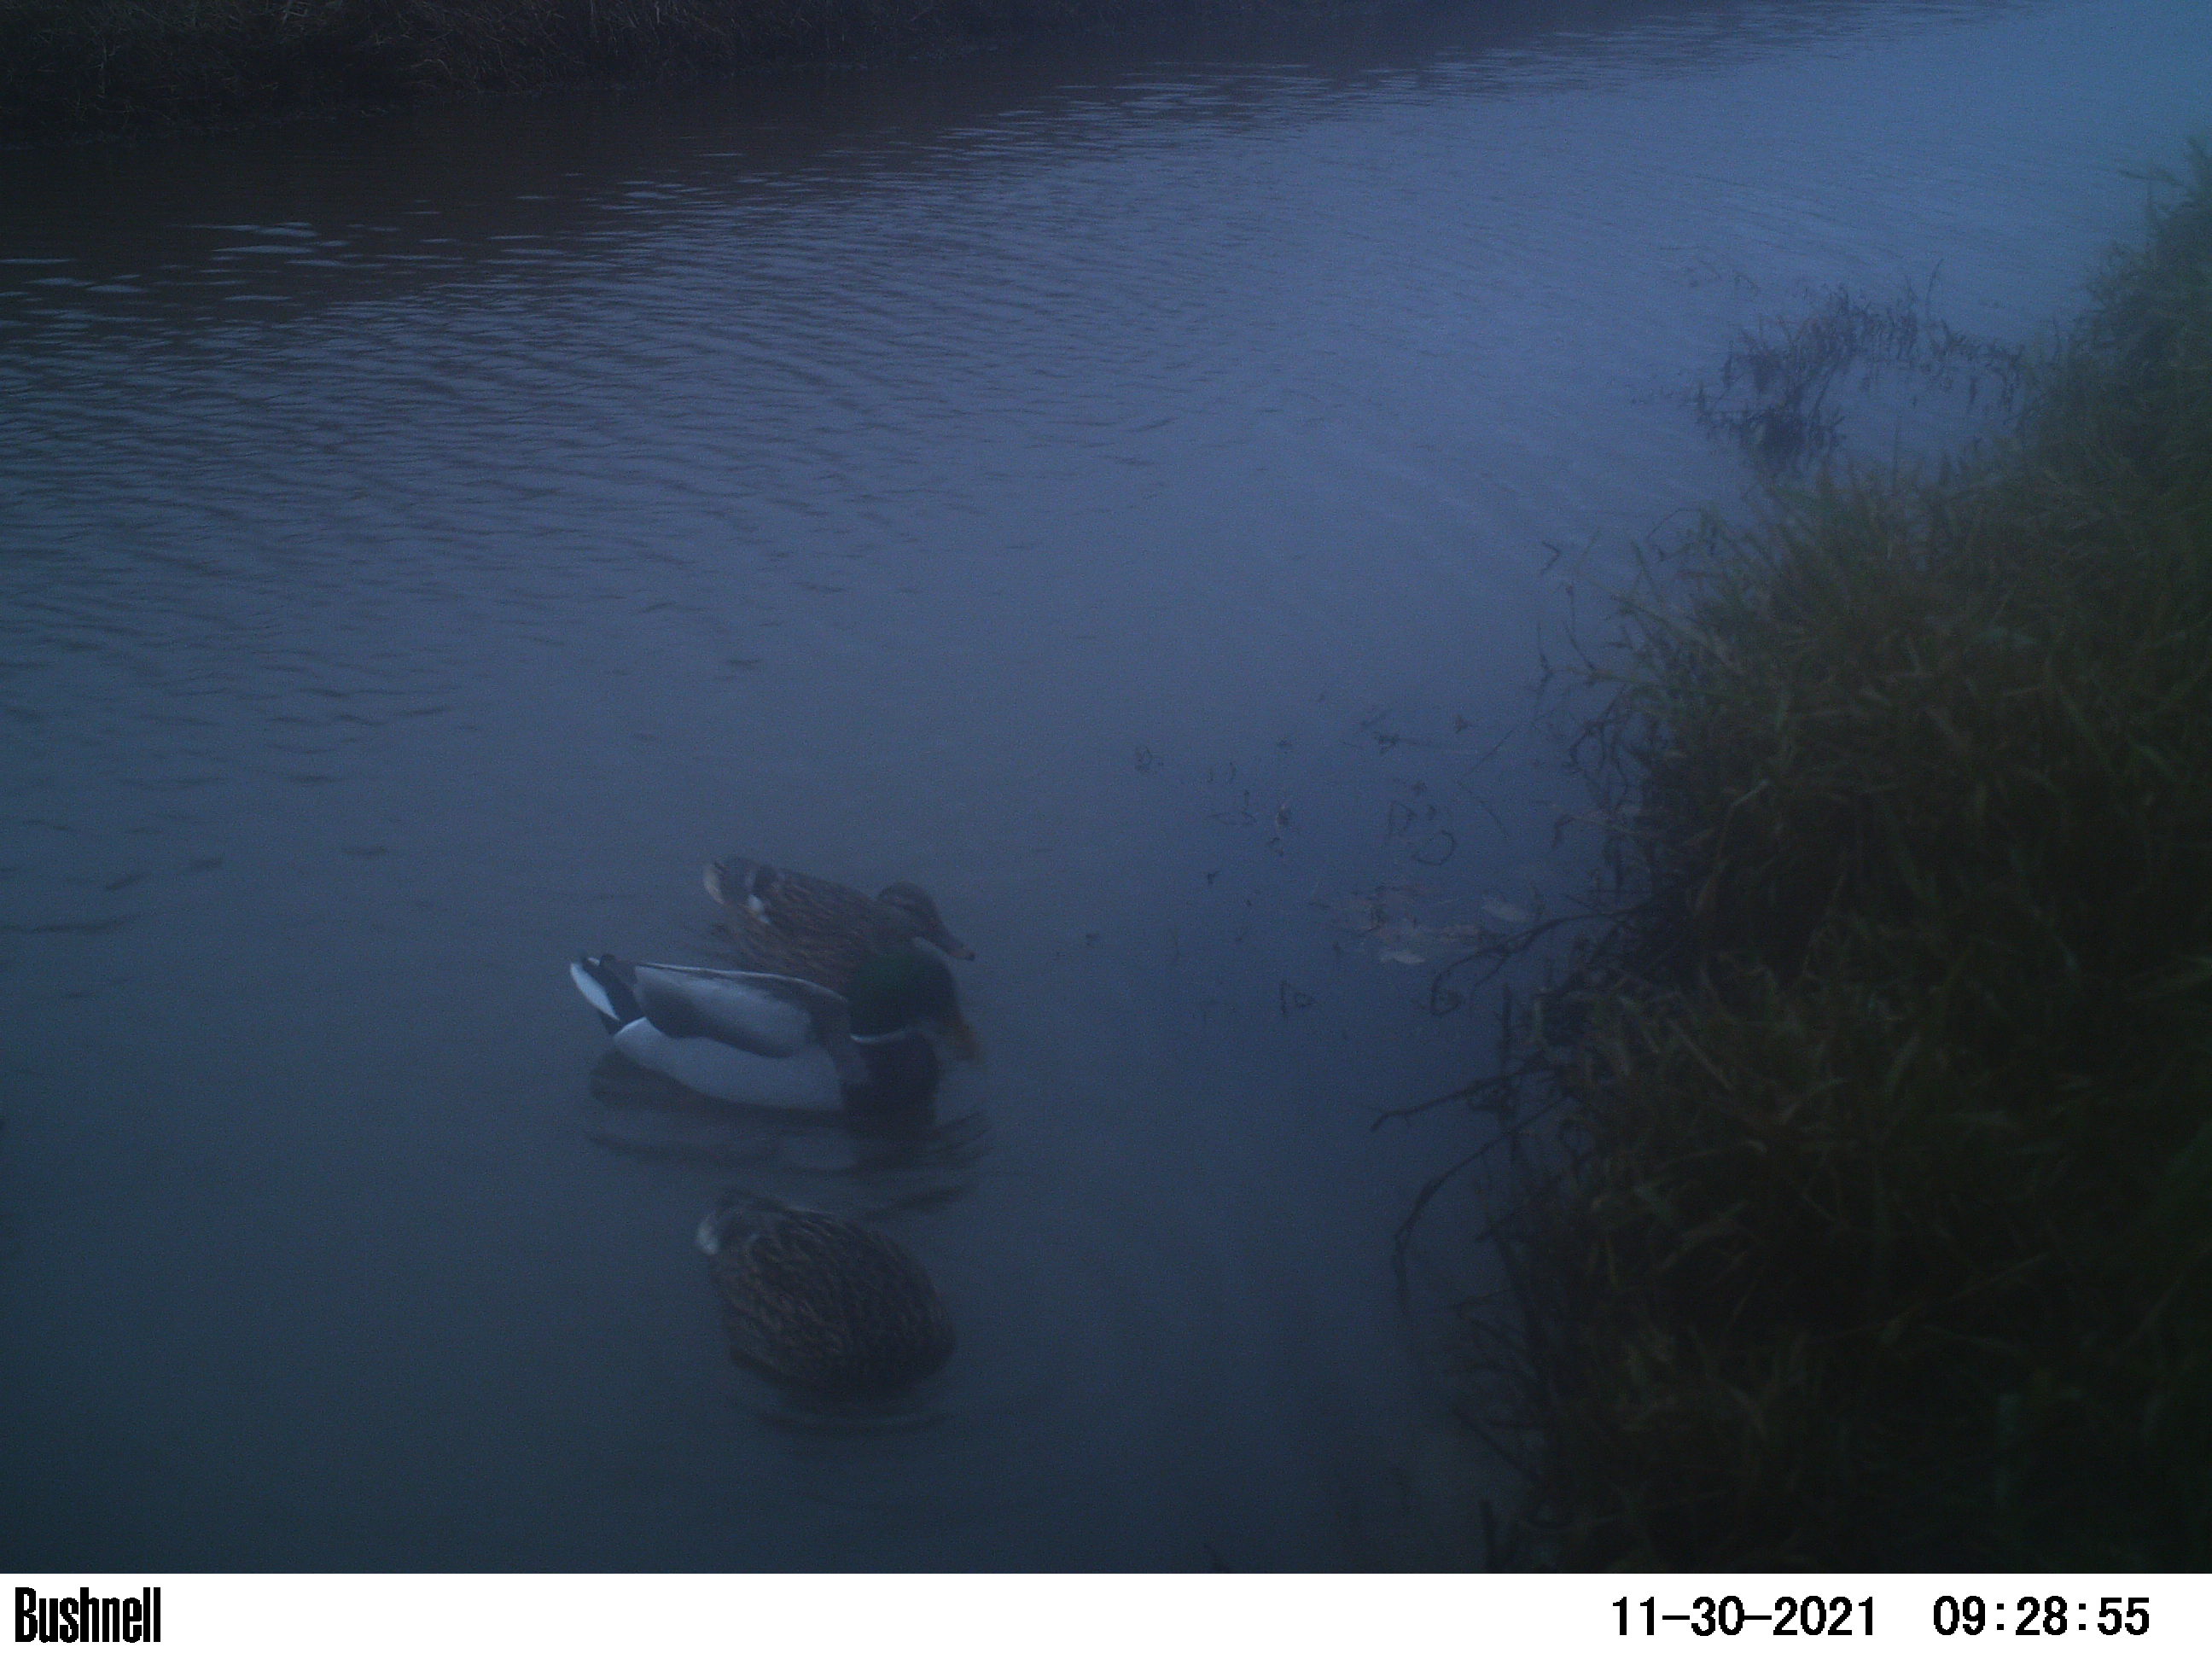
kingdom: Animalia
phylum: Chordata
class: Aves
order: Anseriformes
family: Anatidae
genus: Anas
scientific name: Anas
